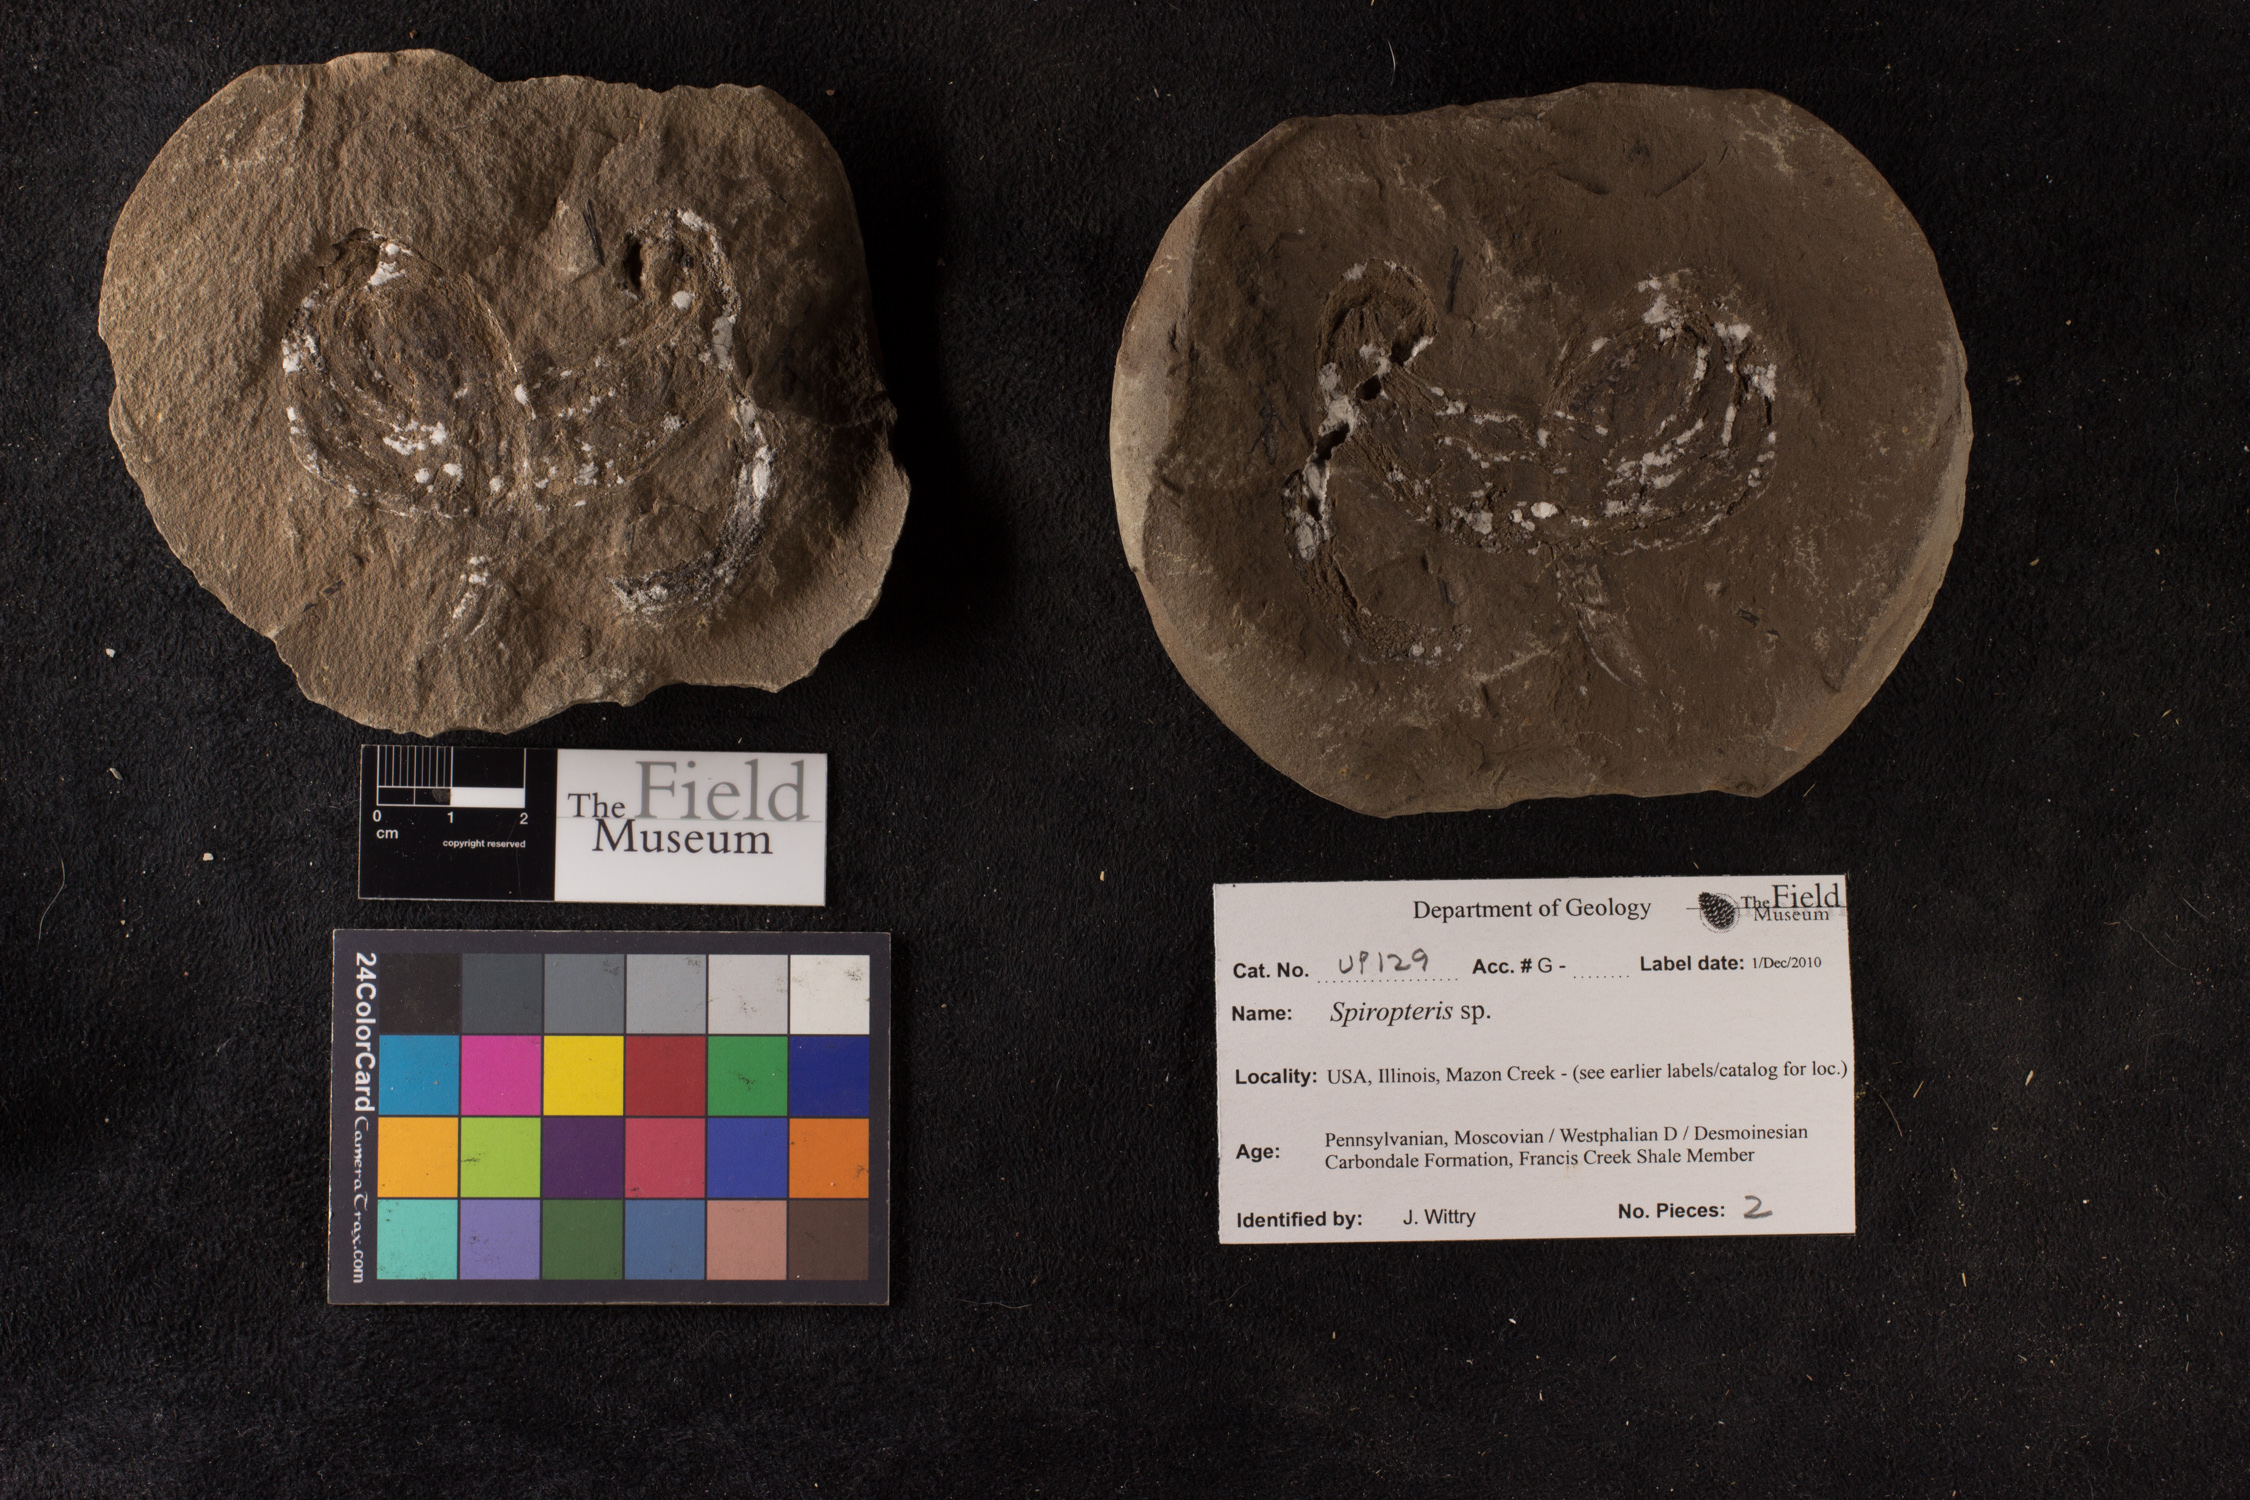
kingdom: Plantae
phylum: Tracheophyta
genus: Spiropteris
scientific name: Spiropteris
